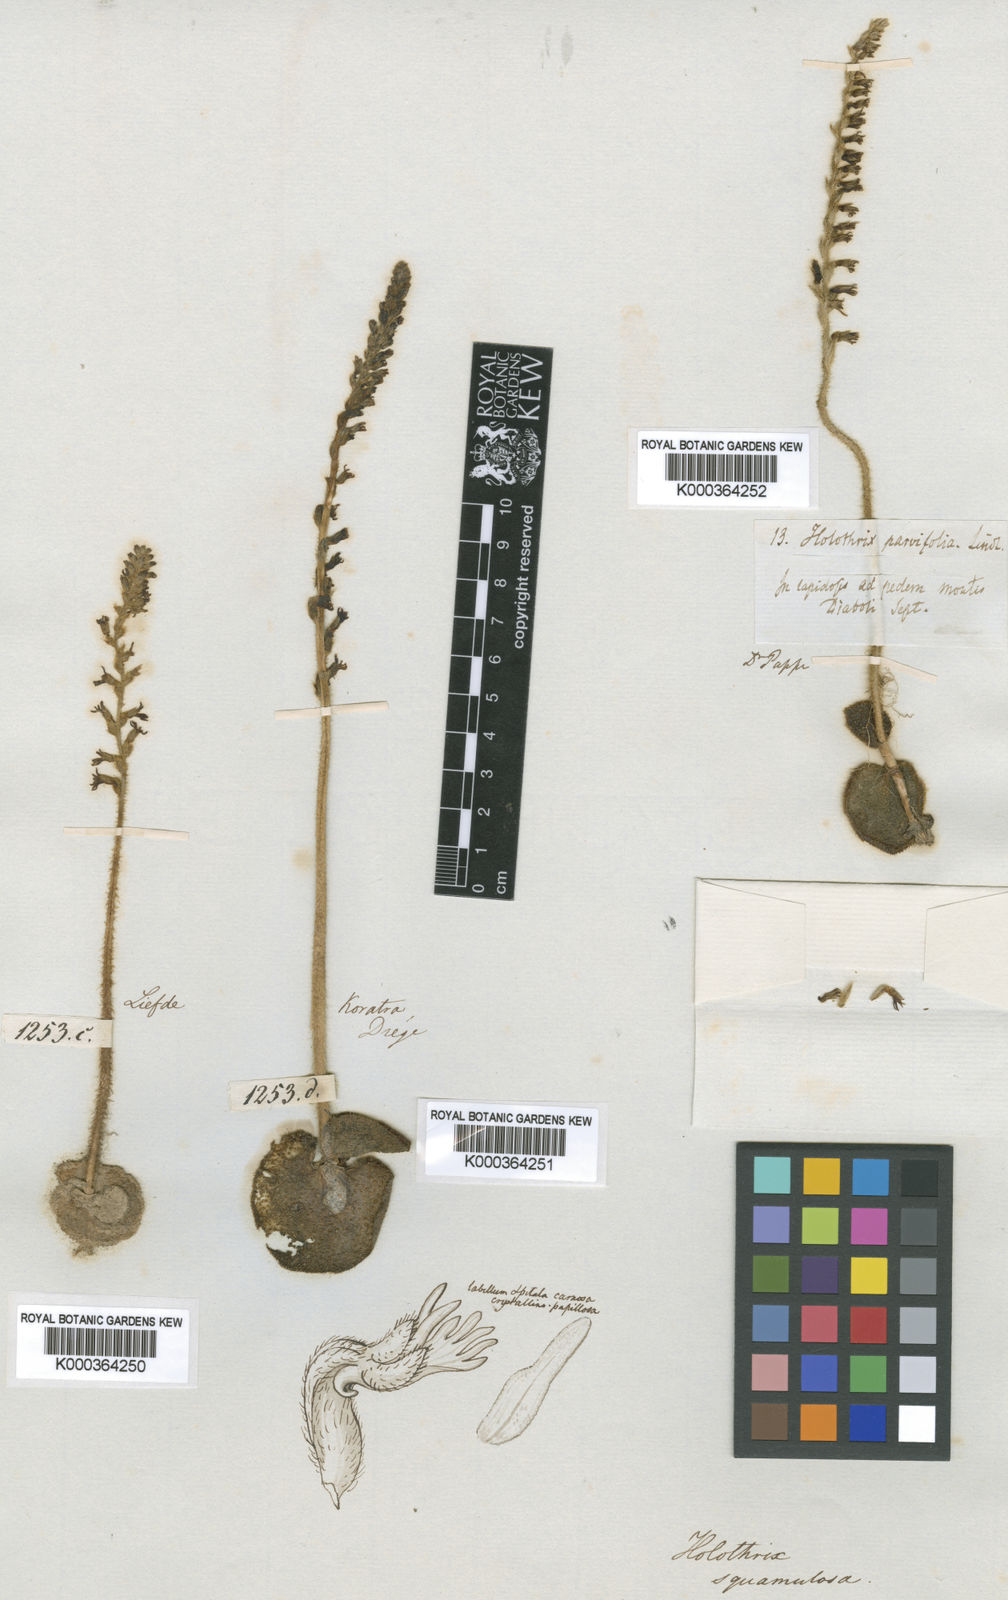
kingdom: Plantae
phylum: Tracheophyta
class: Liliopsida
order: Asparagales
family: Orchidaceae
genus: Holothrix
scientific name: Holothrix cernua
